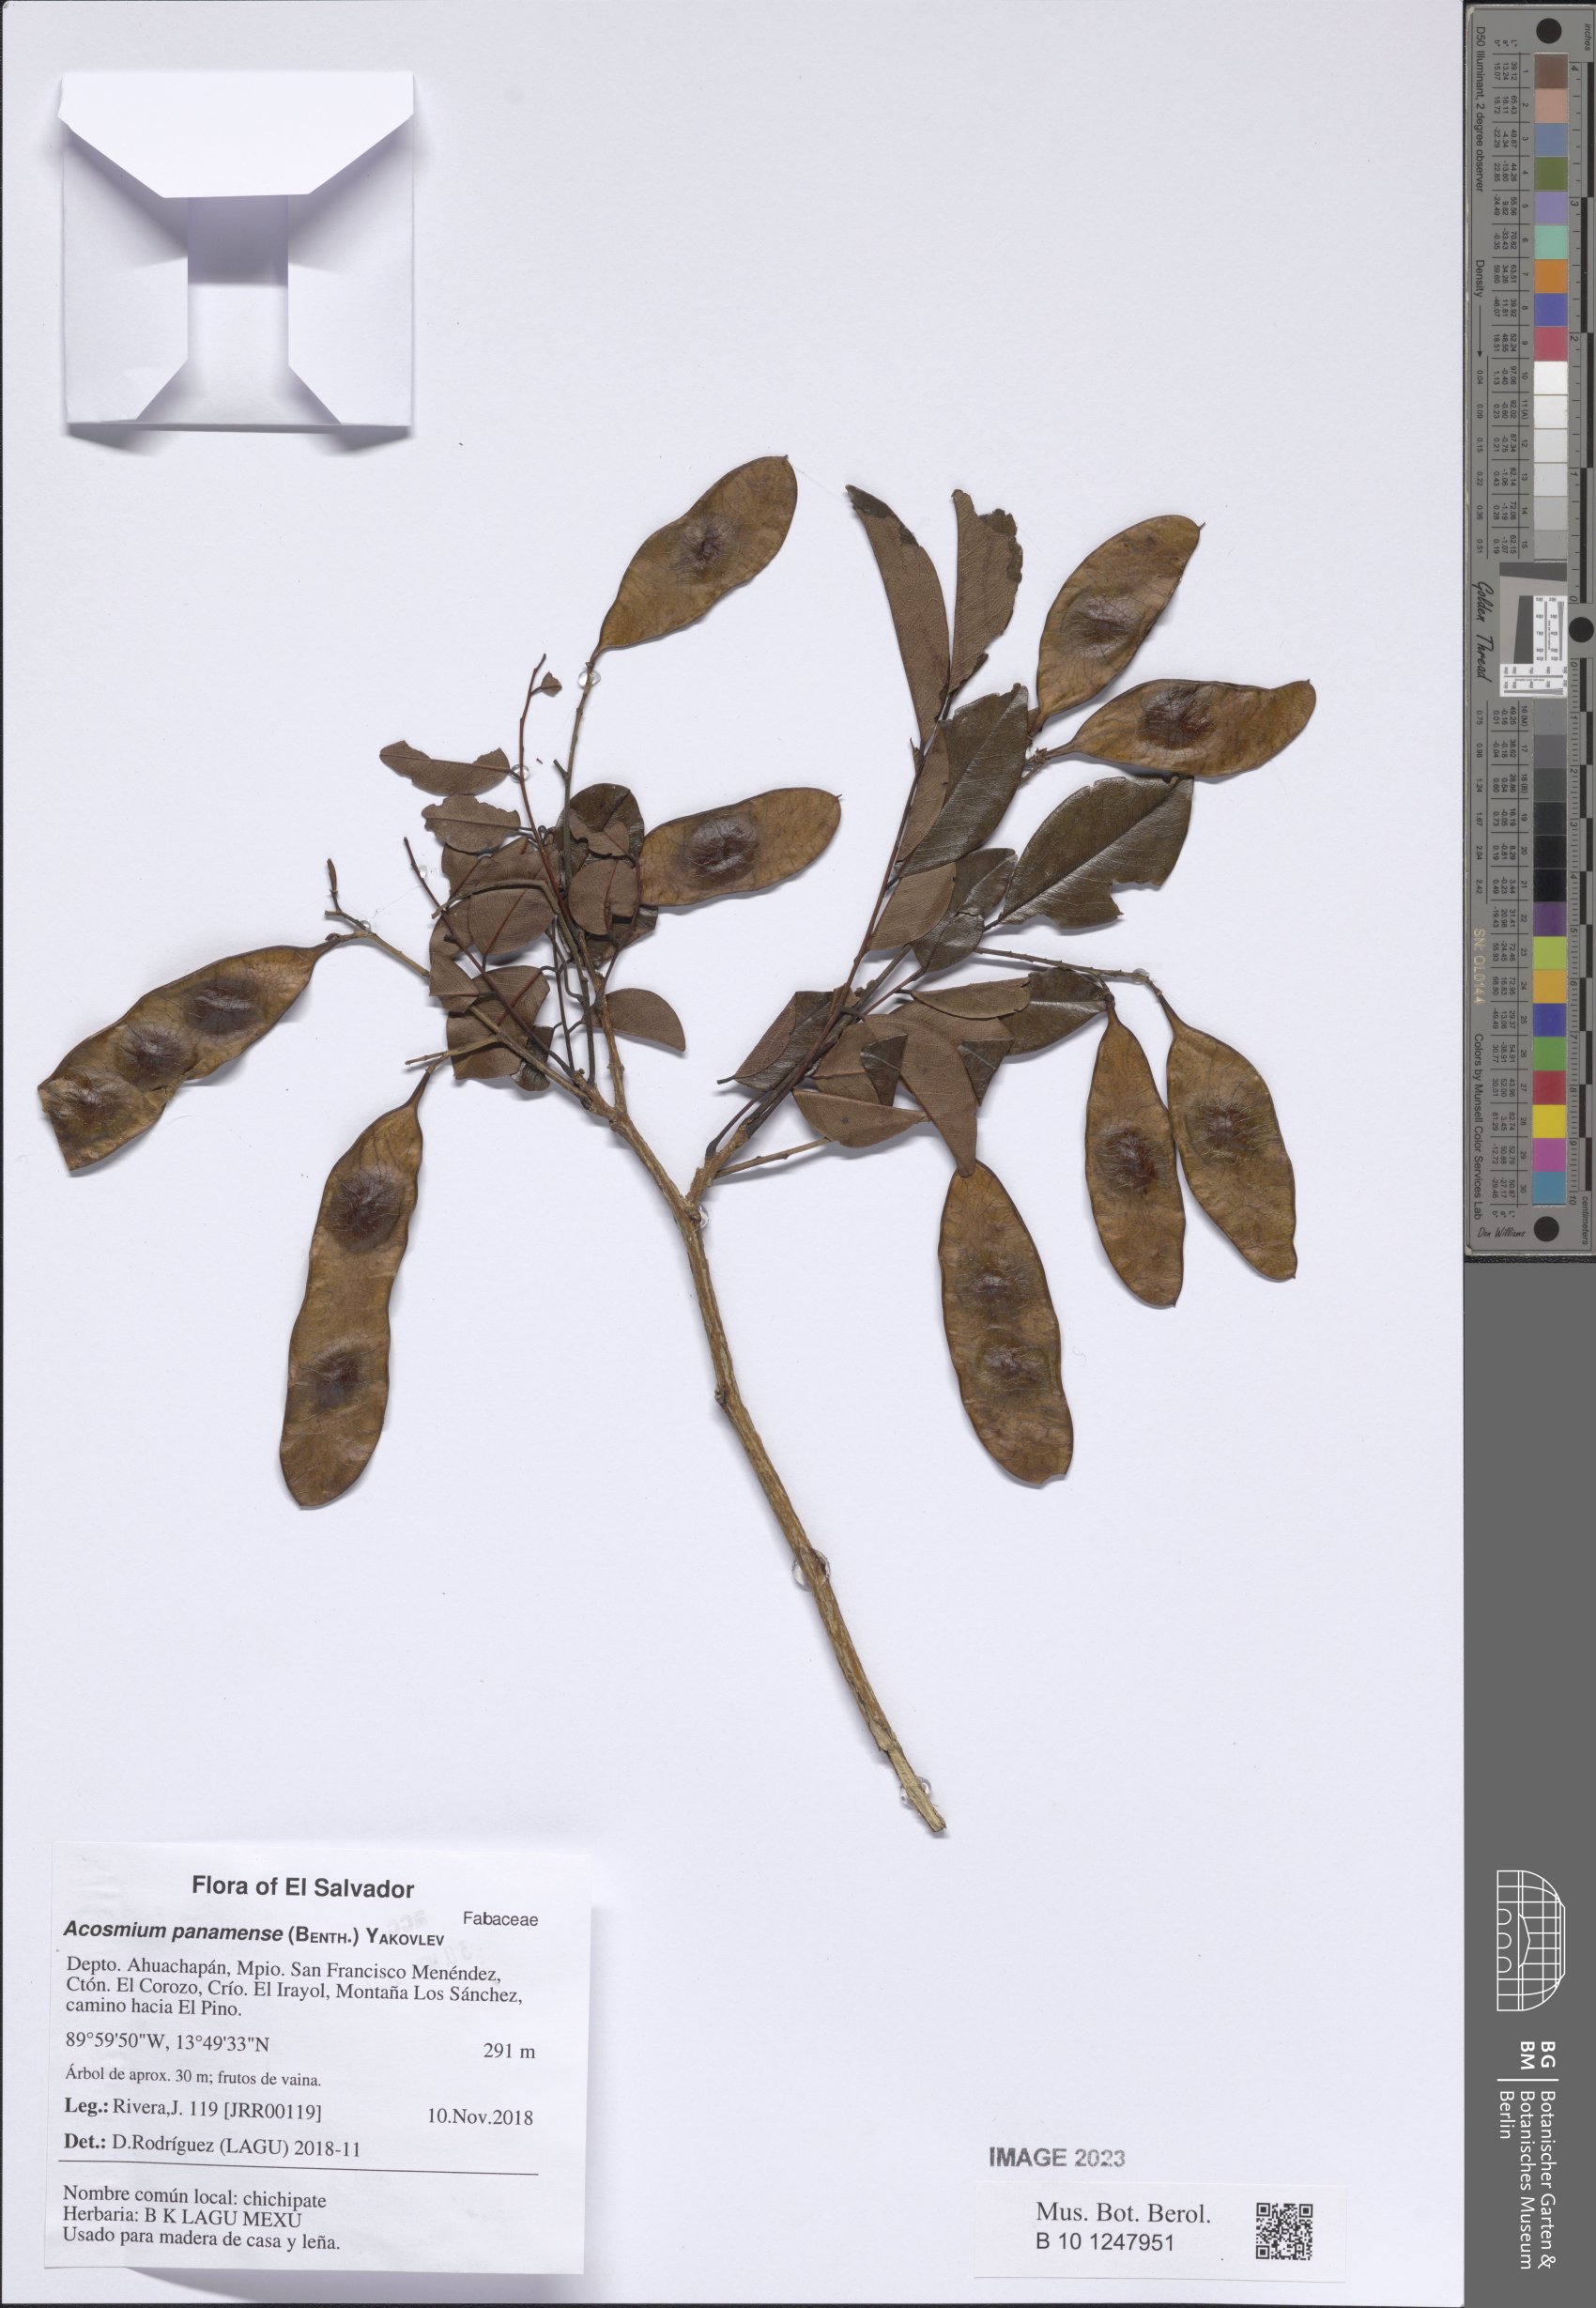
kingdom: Plantae
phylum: Tracheophyta
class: Magnoliopsida
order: Fabales
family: Fabaceae
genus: Leptolobium
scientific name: Leptolobium panamense
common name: Billy webb
